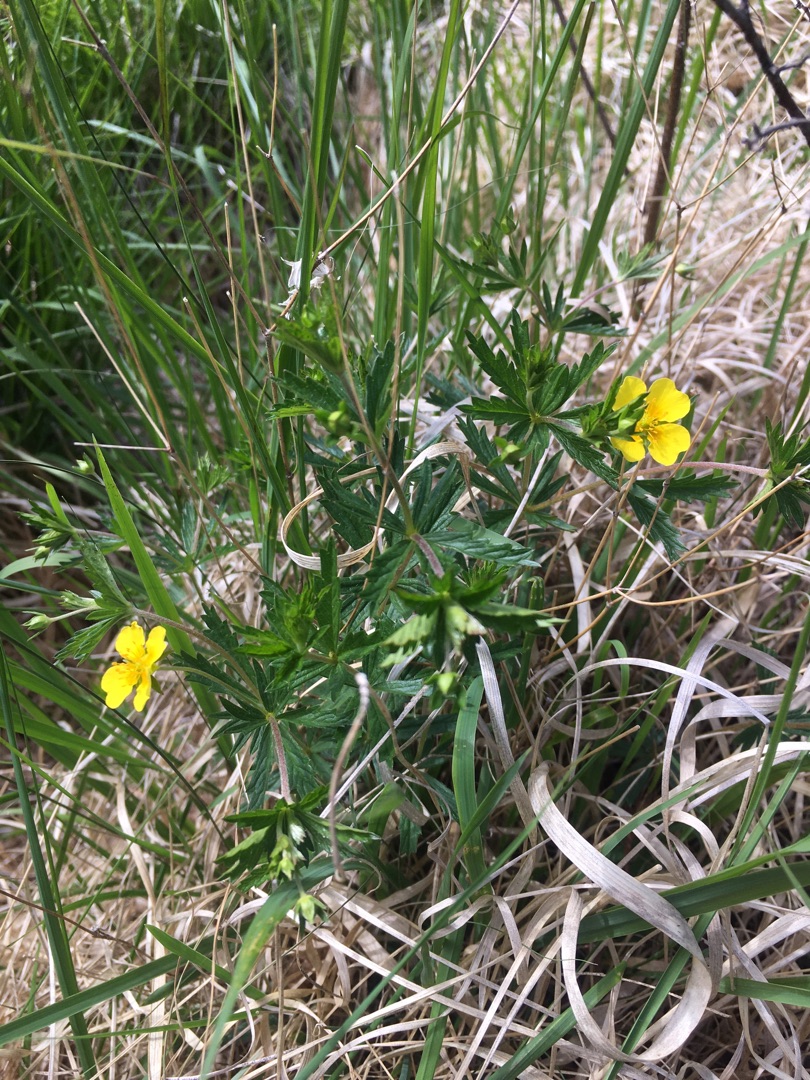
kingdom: Plantae
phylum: Tracheophyta
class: Magnoliopsida
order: Rosales
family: Rosaceae
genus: Potentilla
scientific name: Potentilla erecta
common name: Tormentil
